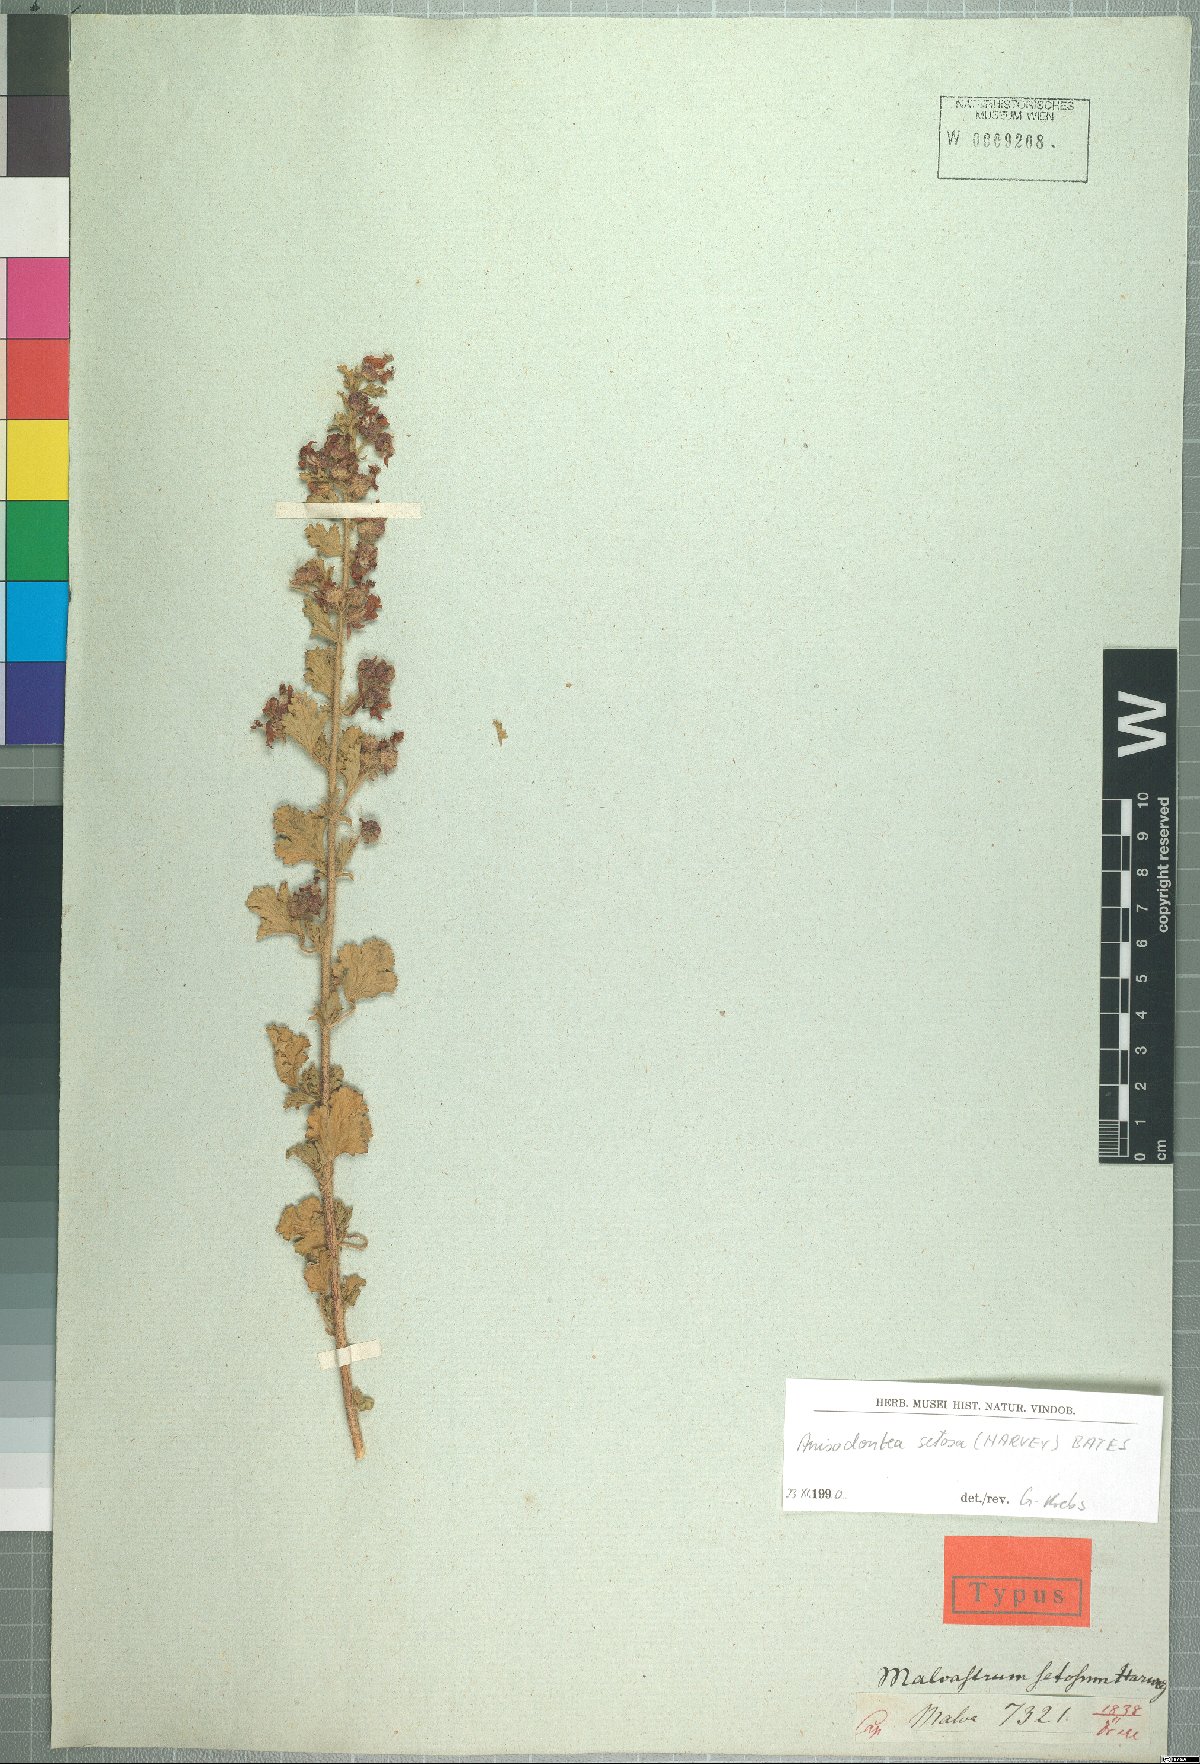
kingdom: Plantae
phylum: Tracheophyta
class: Magnoliopsida
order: Malvales
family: Malvaceae
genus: Anisodontea
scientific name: Anisodontea setosa
